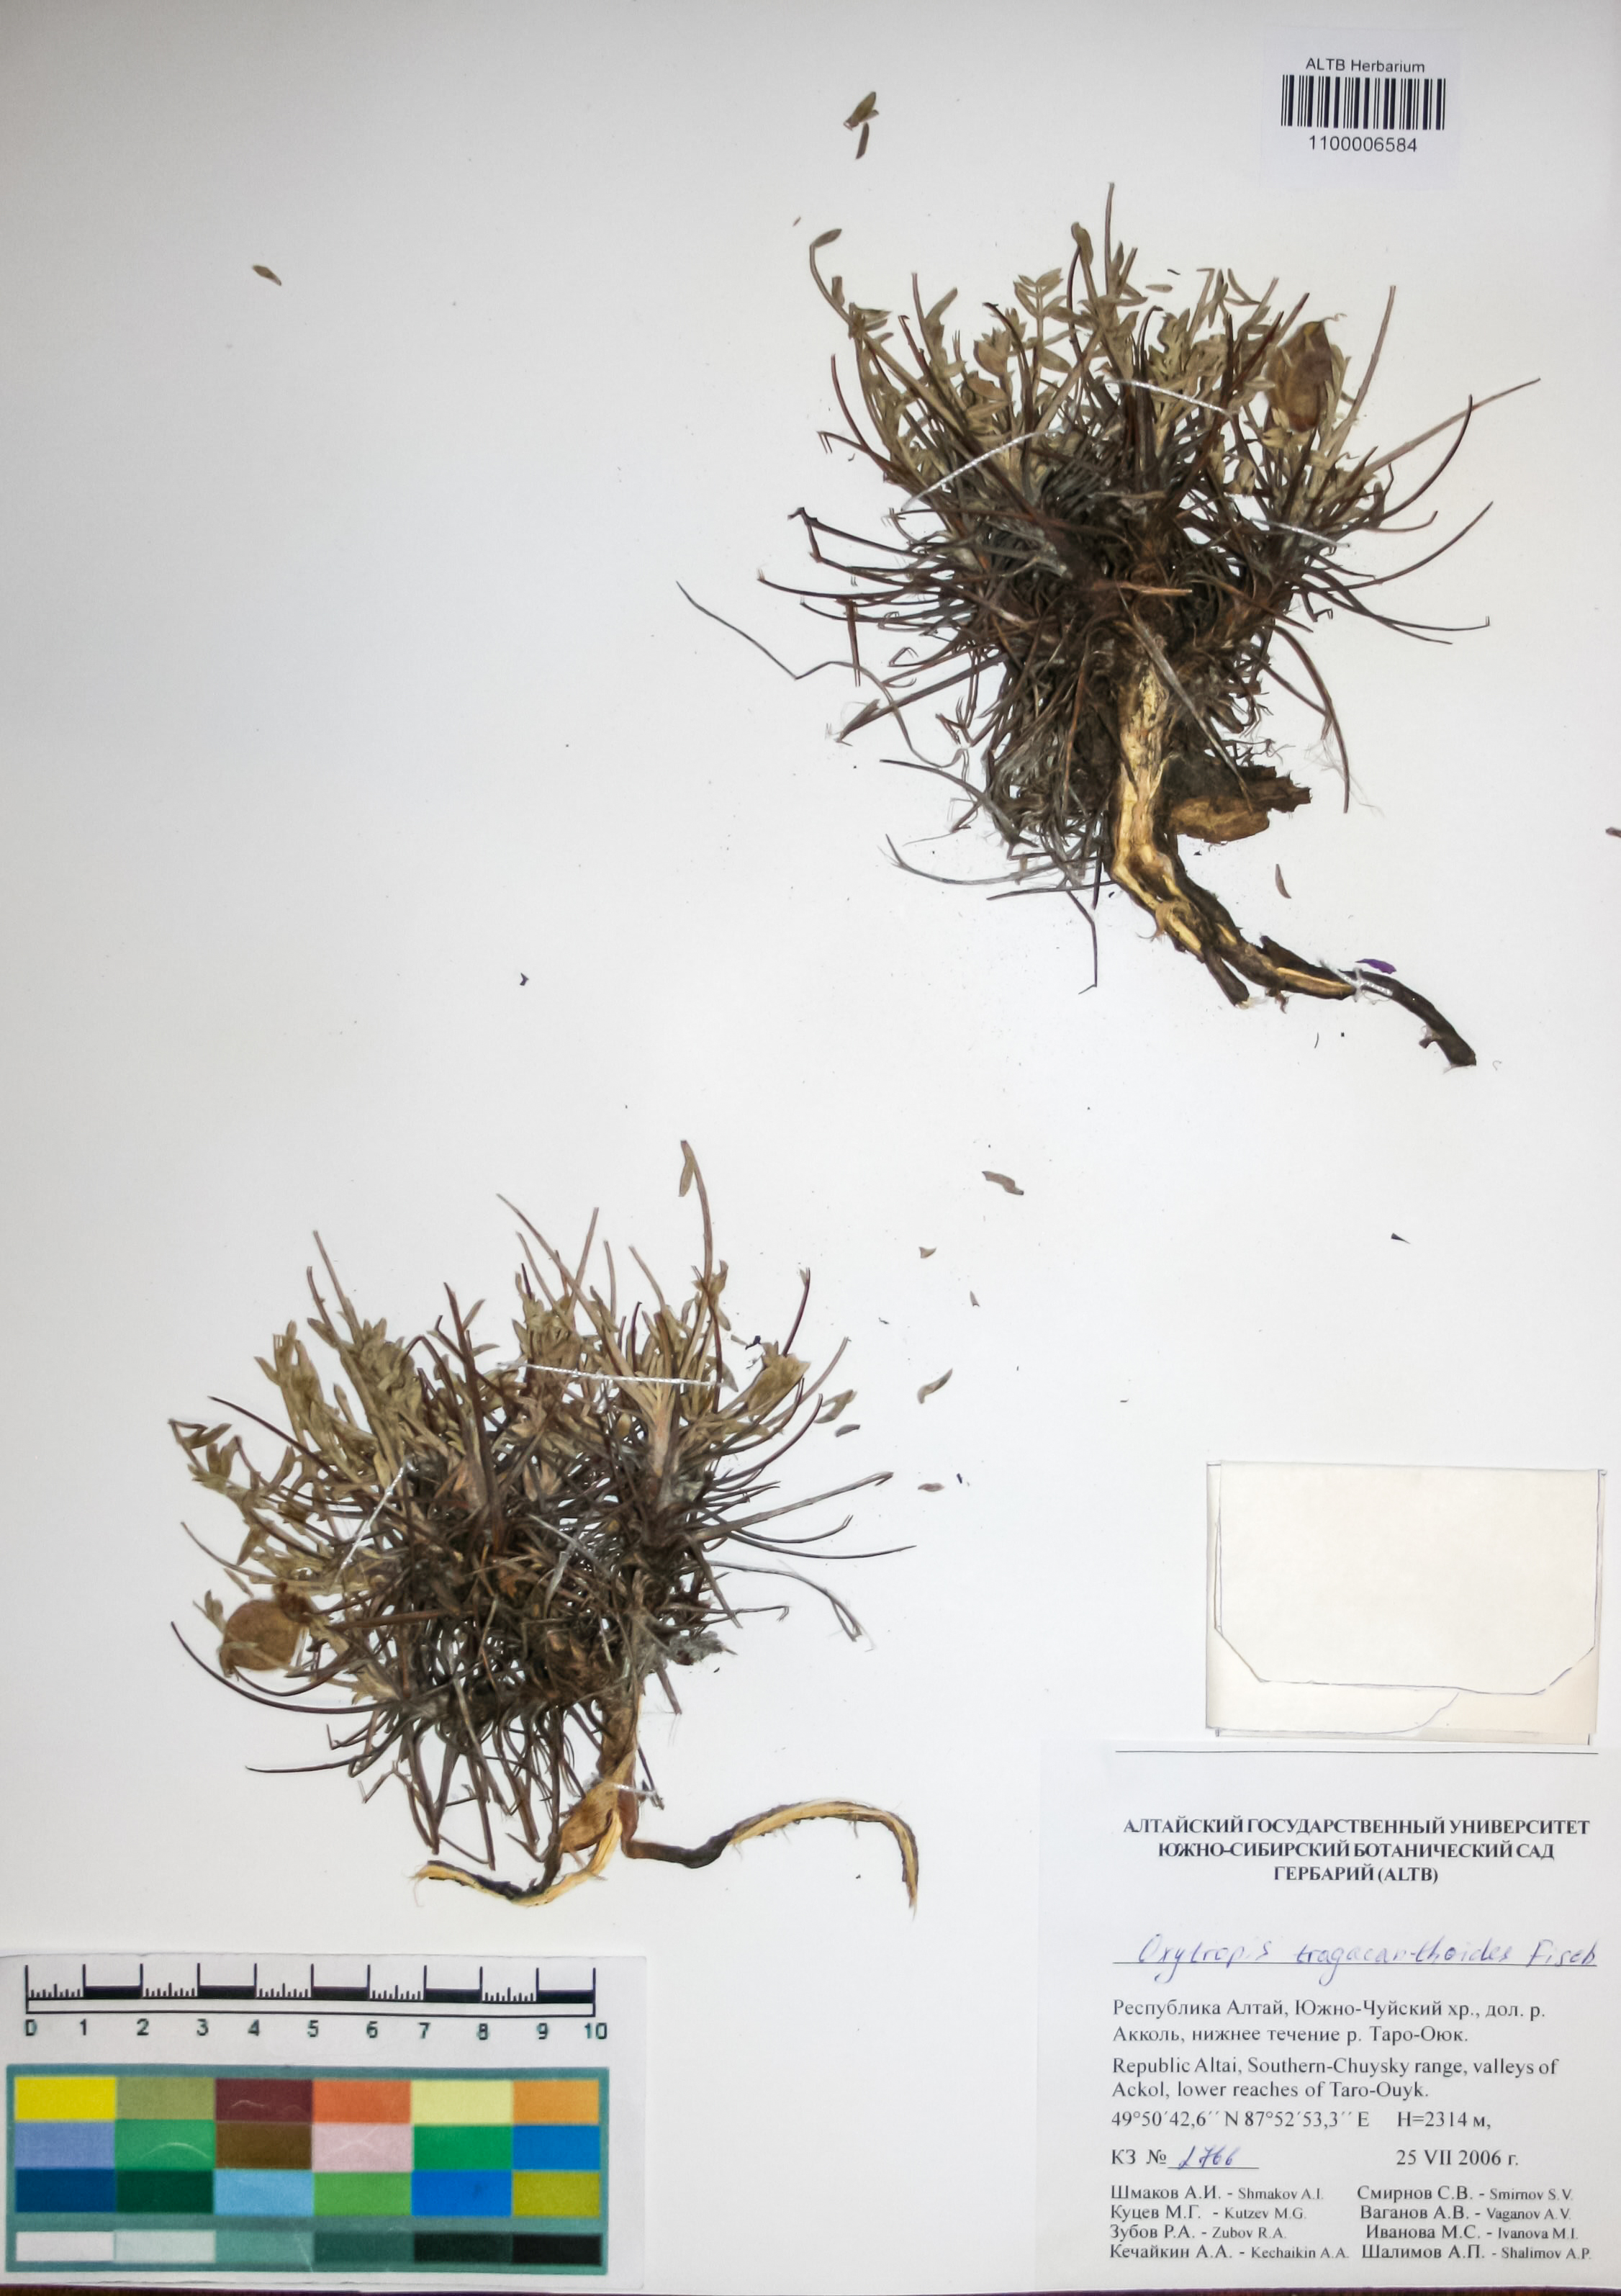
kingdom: Plantae
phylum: Tracheophyta
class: Magnoliopsida
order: Fabales
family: Fabaceae
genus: Oxytropis
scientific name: Oxytropis tragacanthoides
